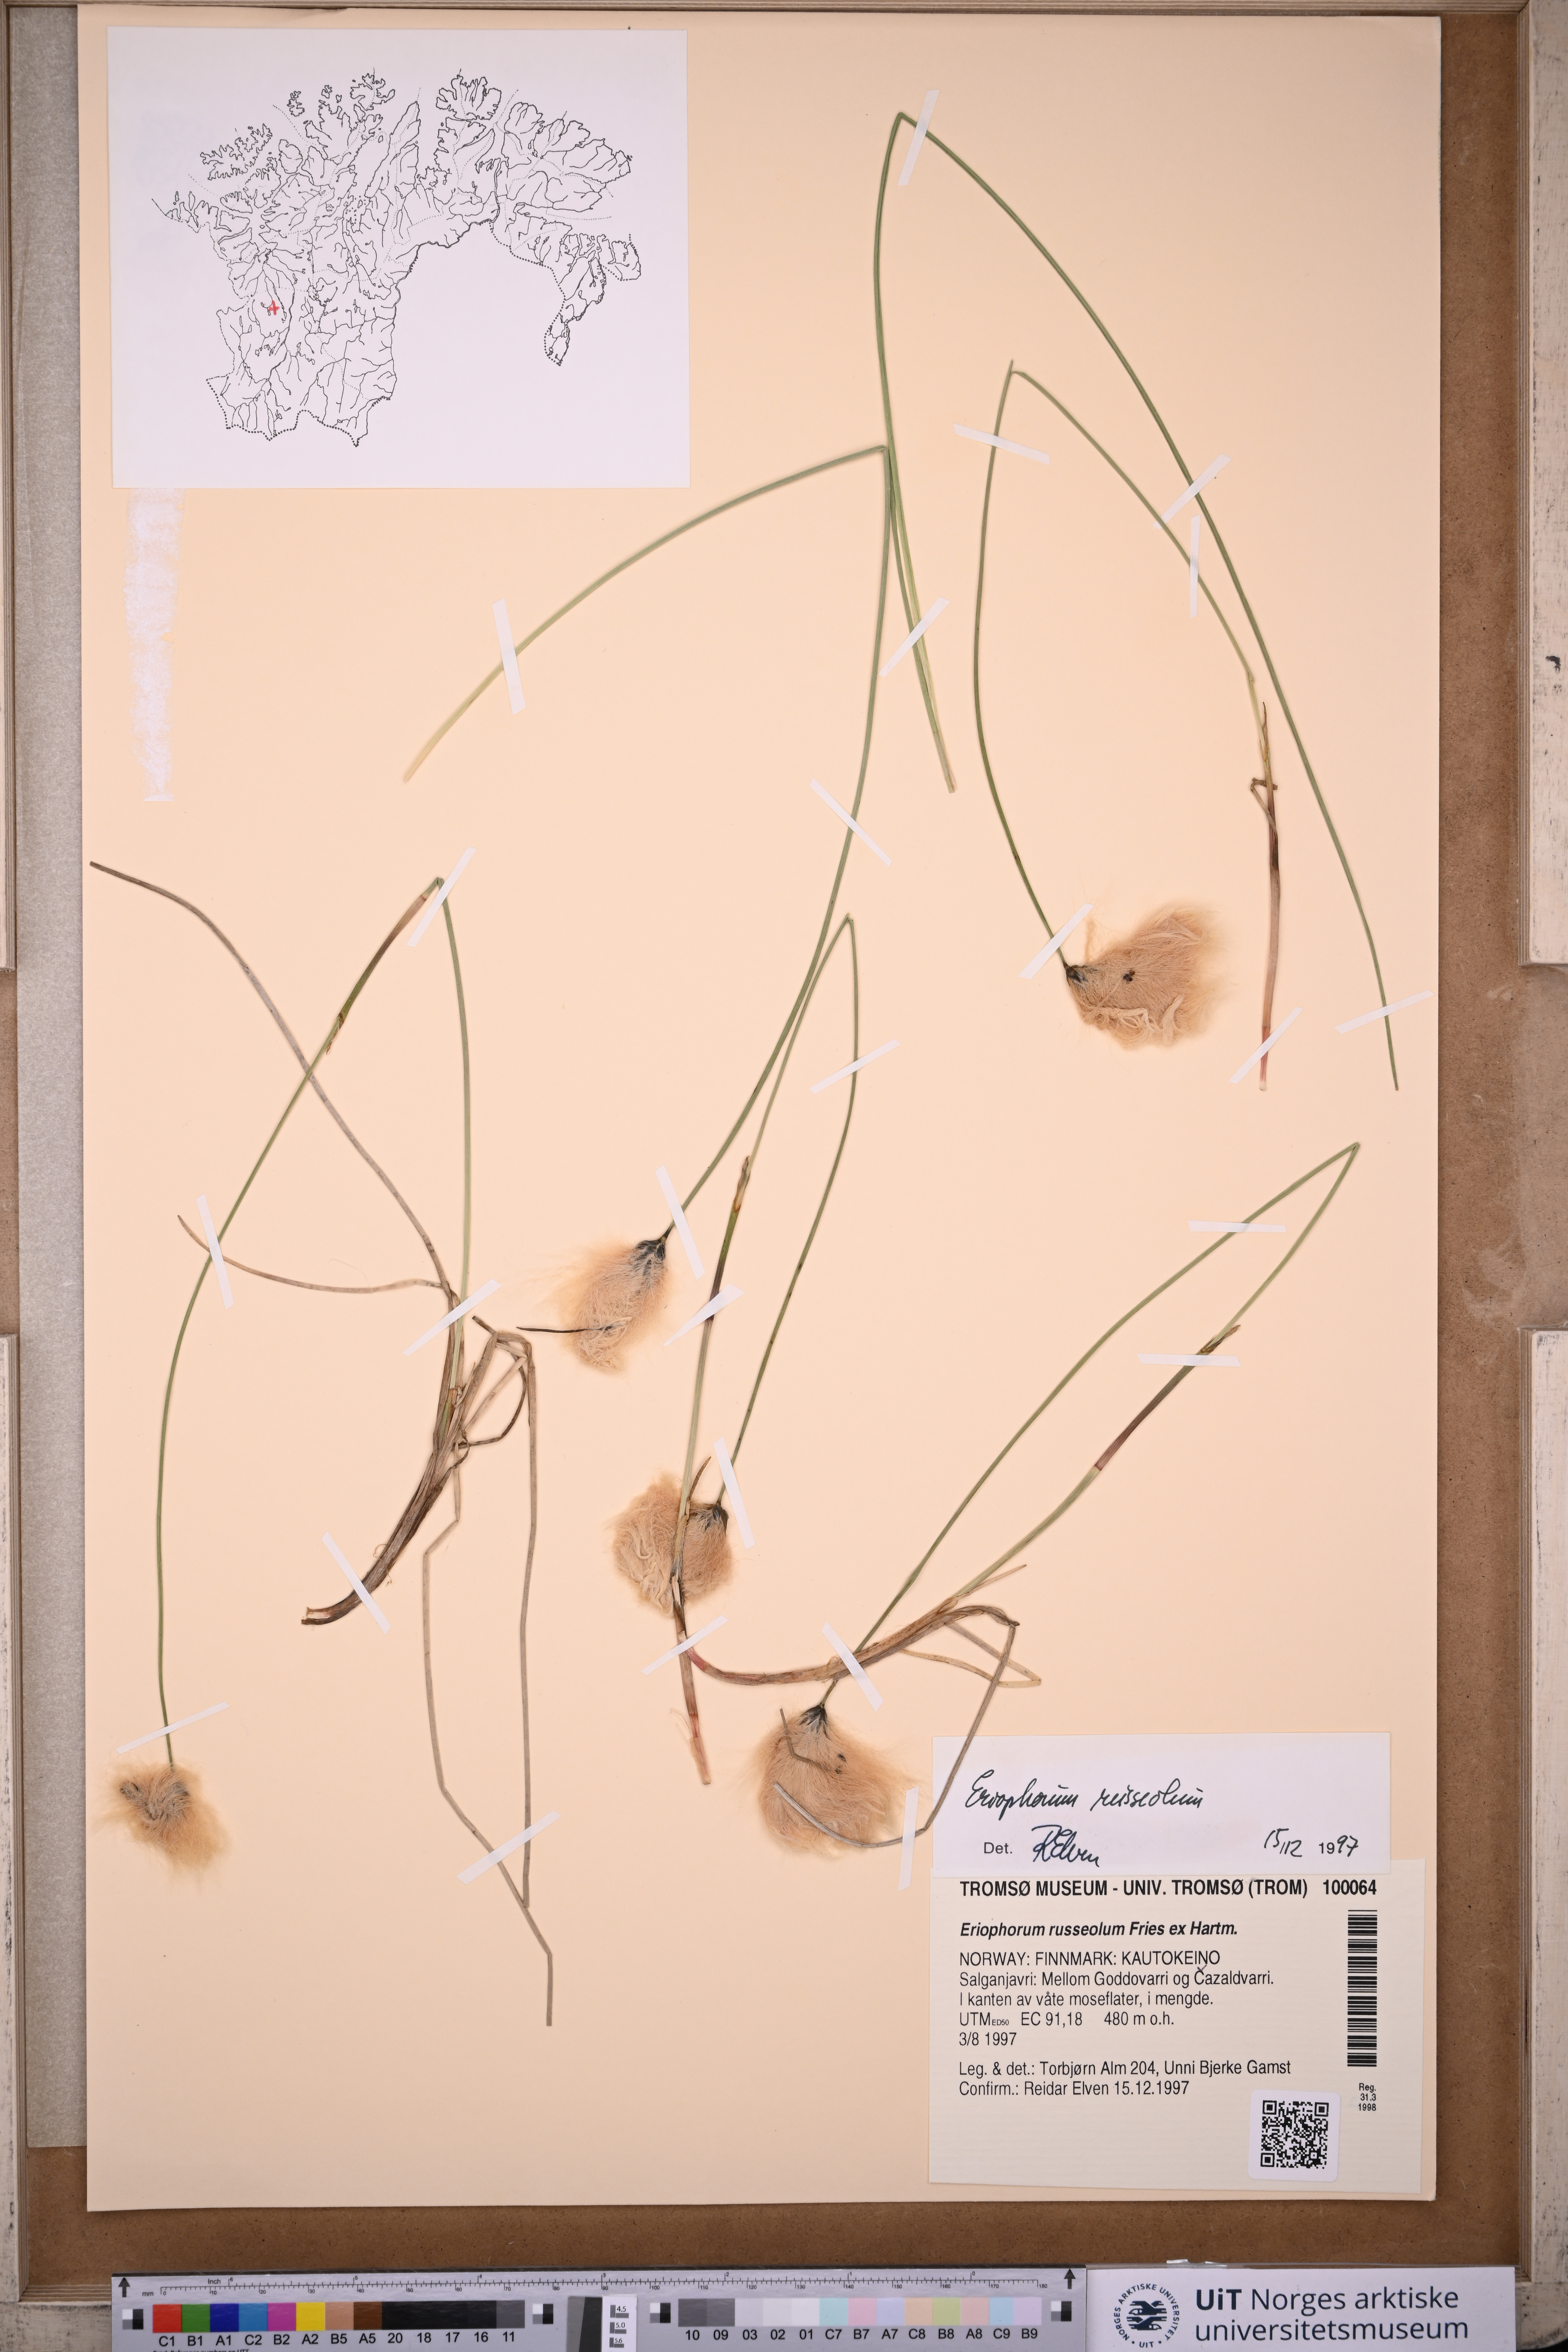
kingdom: Plantae
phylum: Tracheophyta
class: Liliopsida
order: Poales
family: Cyperaceae
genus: Eriophorum
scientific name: Eriophorum russeolum
